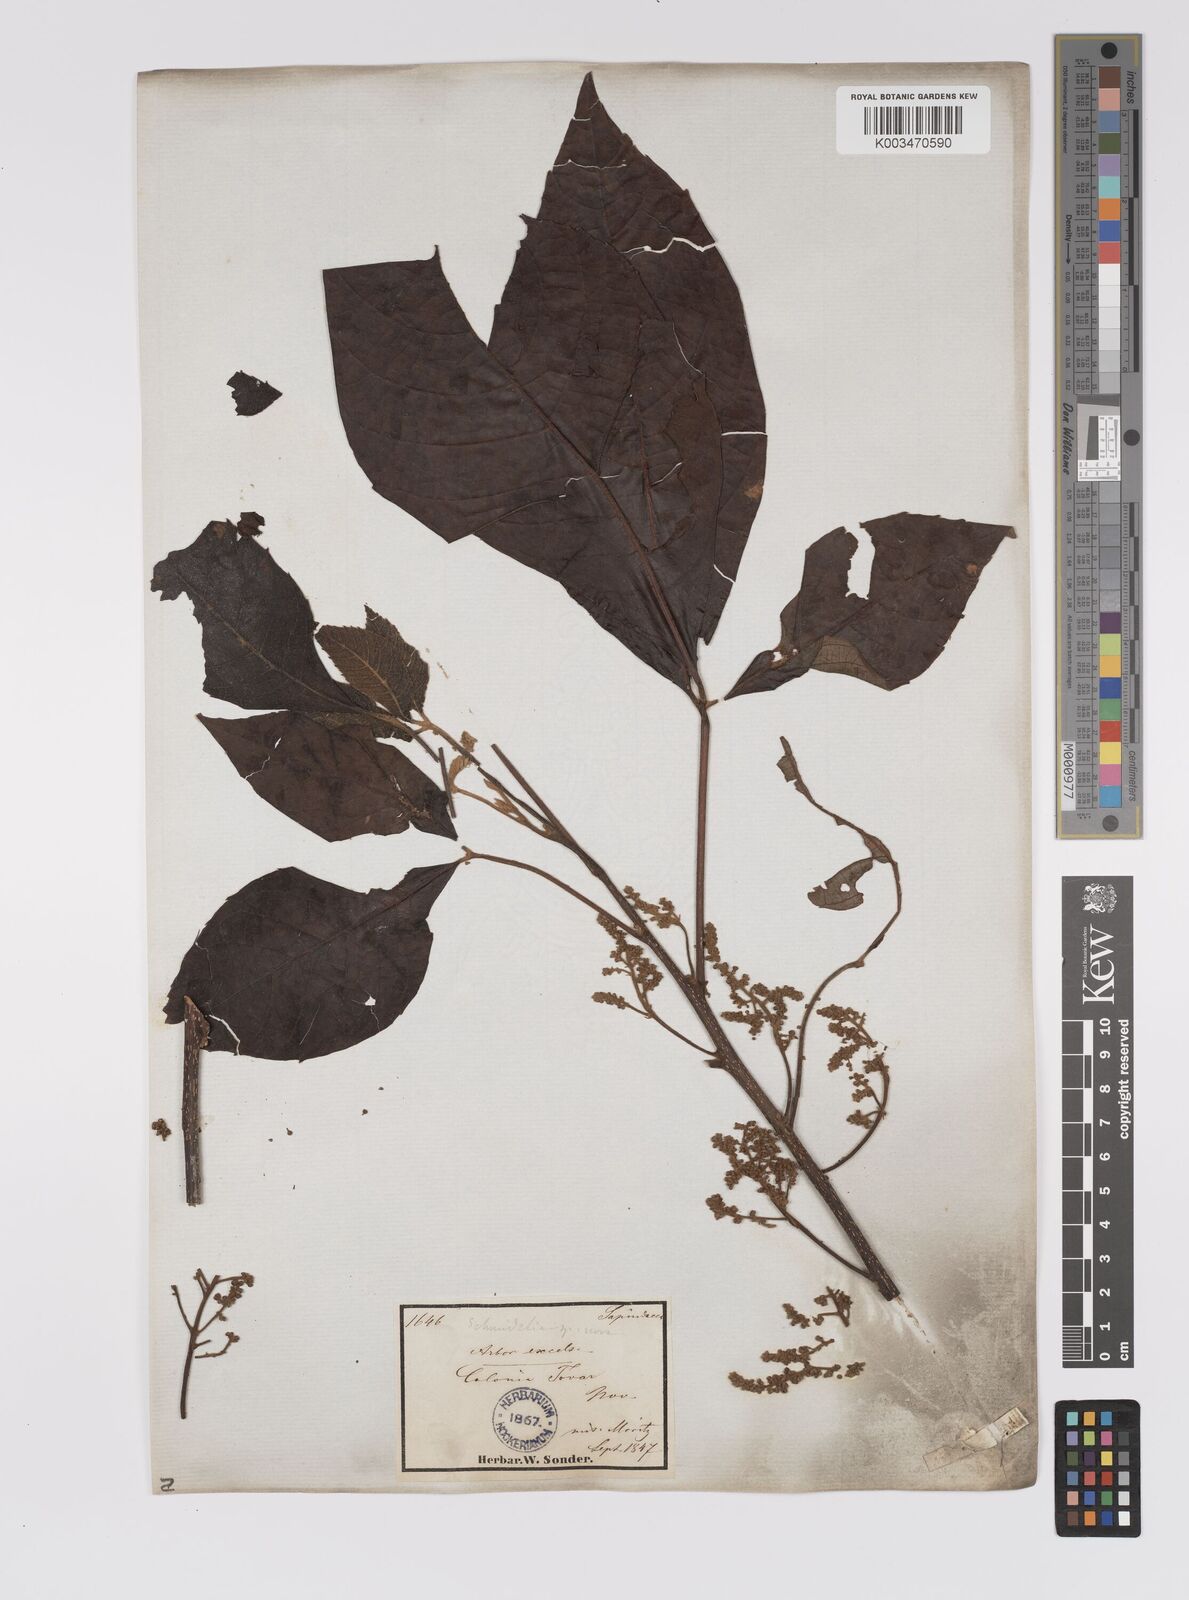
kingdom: Plantae
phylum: Tracheophyta
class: Magnoliopsida
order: Sapindales
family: Sapindaceae
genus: Allophylus
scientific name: Allophylus excelsus
